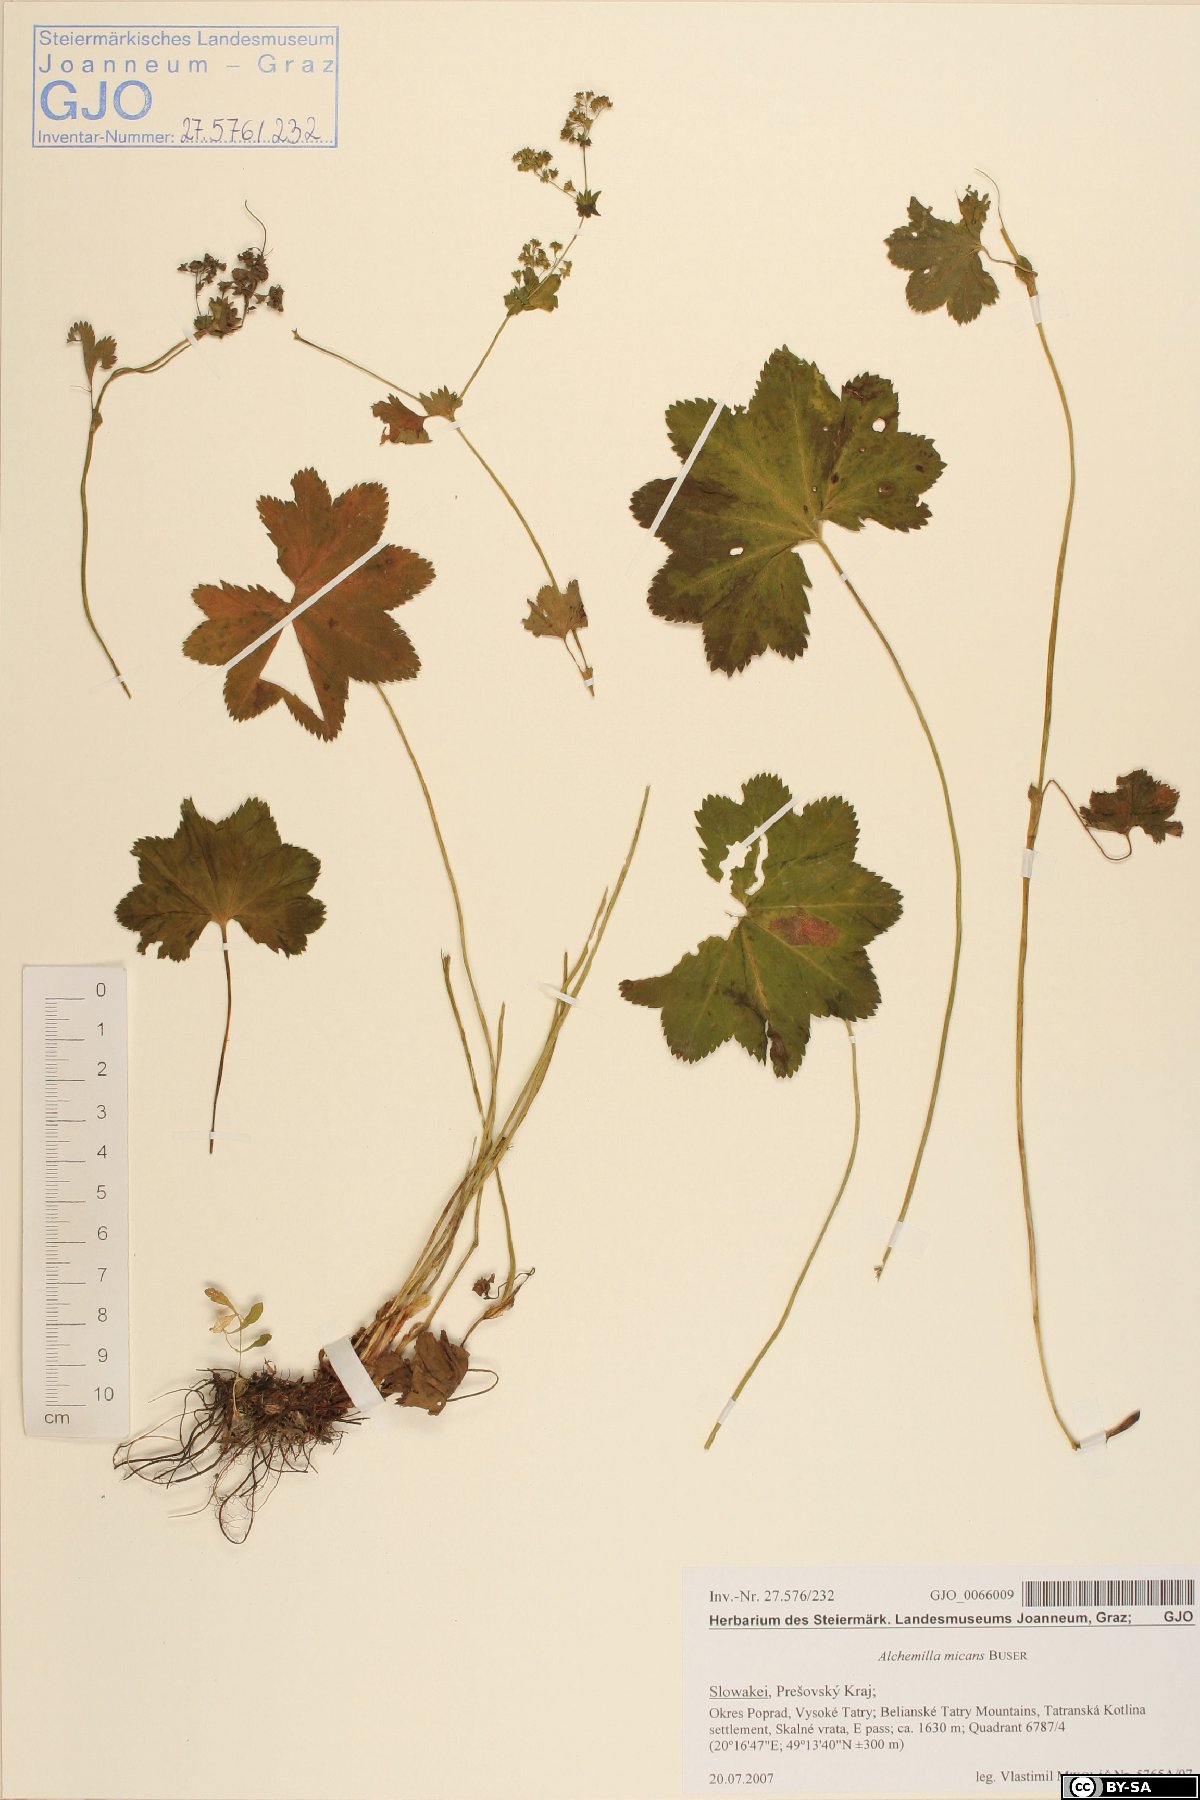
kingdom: Plantae
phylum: Tracheophyta
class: Magnoliopsida
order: Rosales
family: Rosaceae
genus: Alchemilla
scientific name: Alchemilla micans
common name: Gleaming lady's mantle
